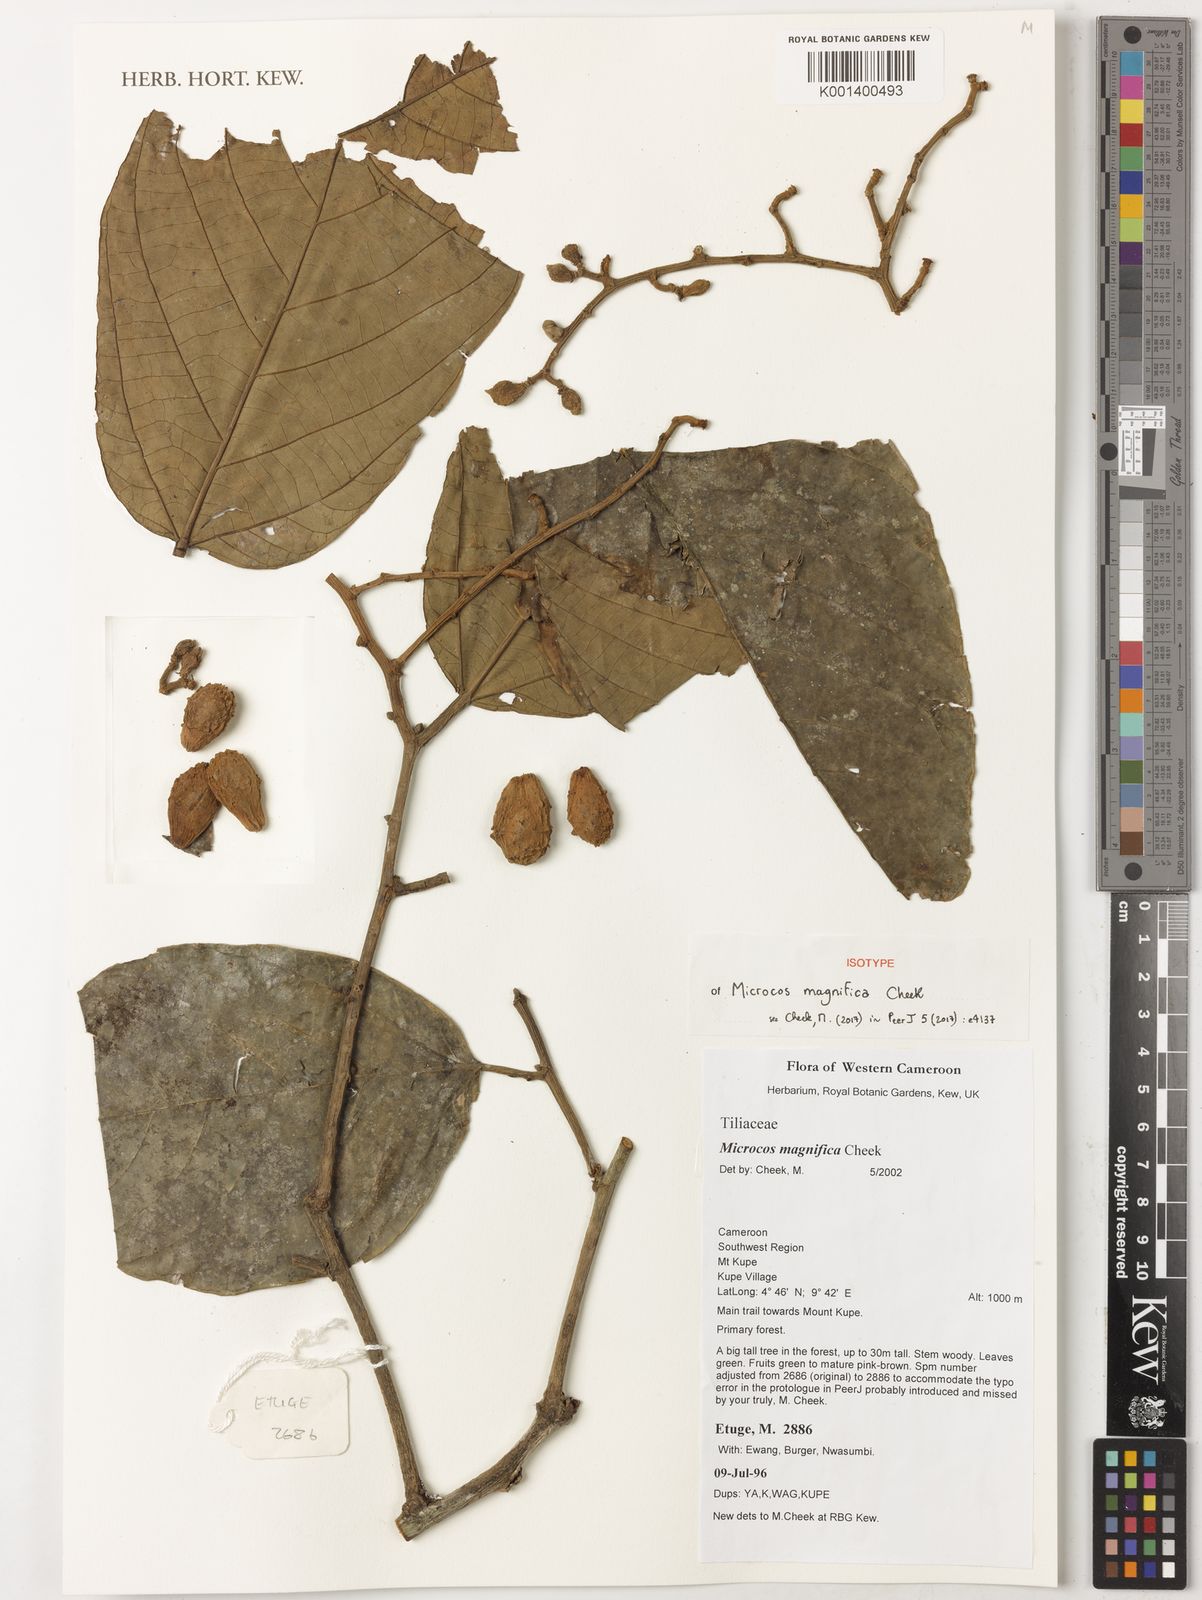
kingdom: Plantae
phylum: Tracheophyta
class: Magnoliopsida
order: Malvales
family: Malvaceae
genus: Microcos
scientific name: Microcos magnifica
